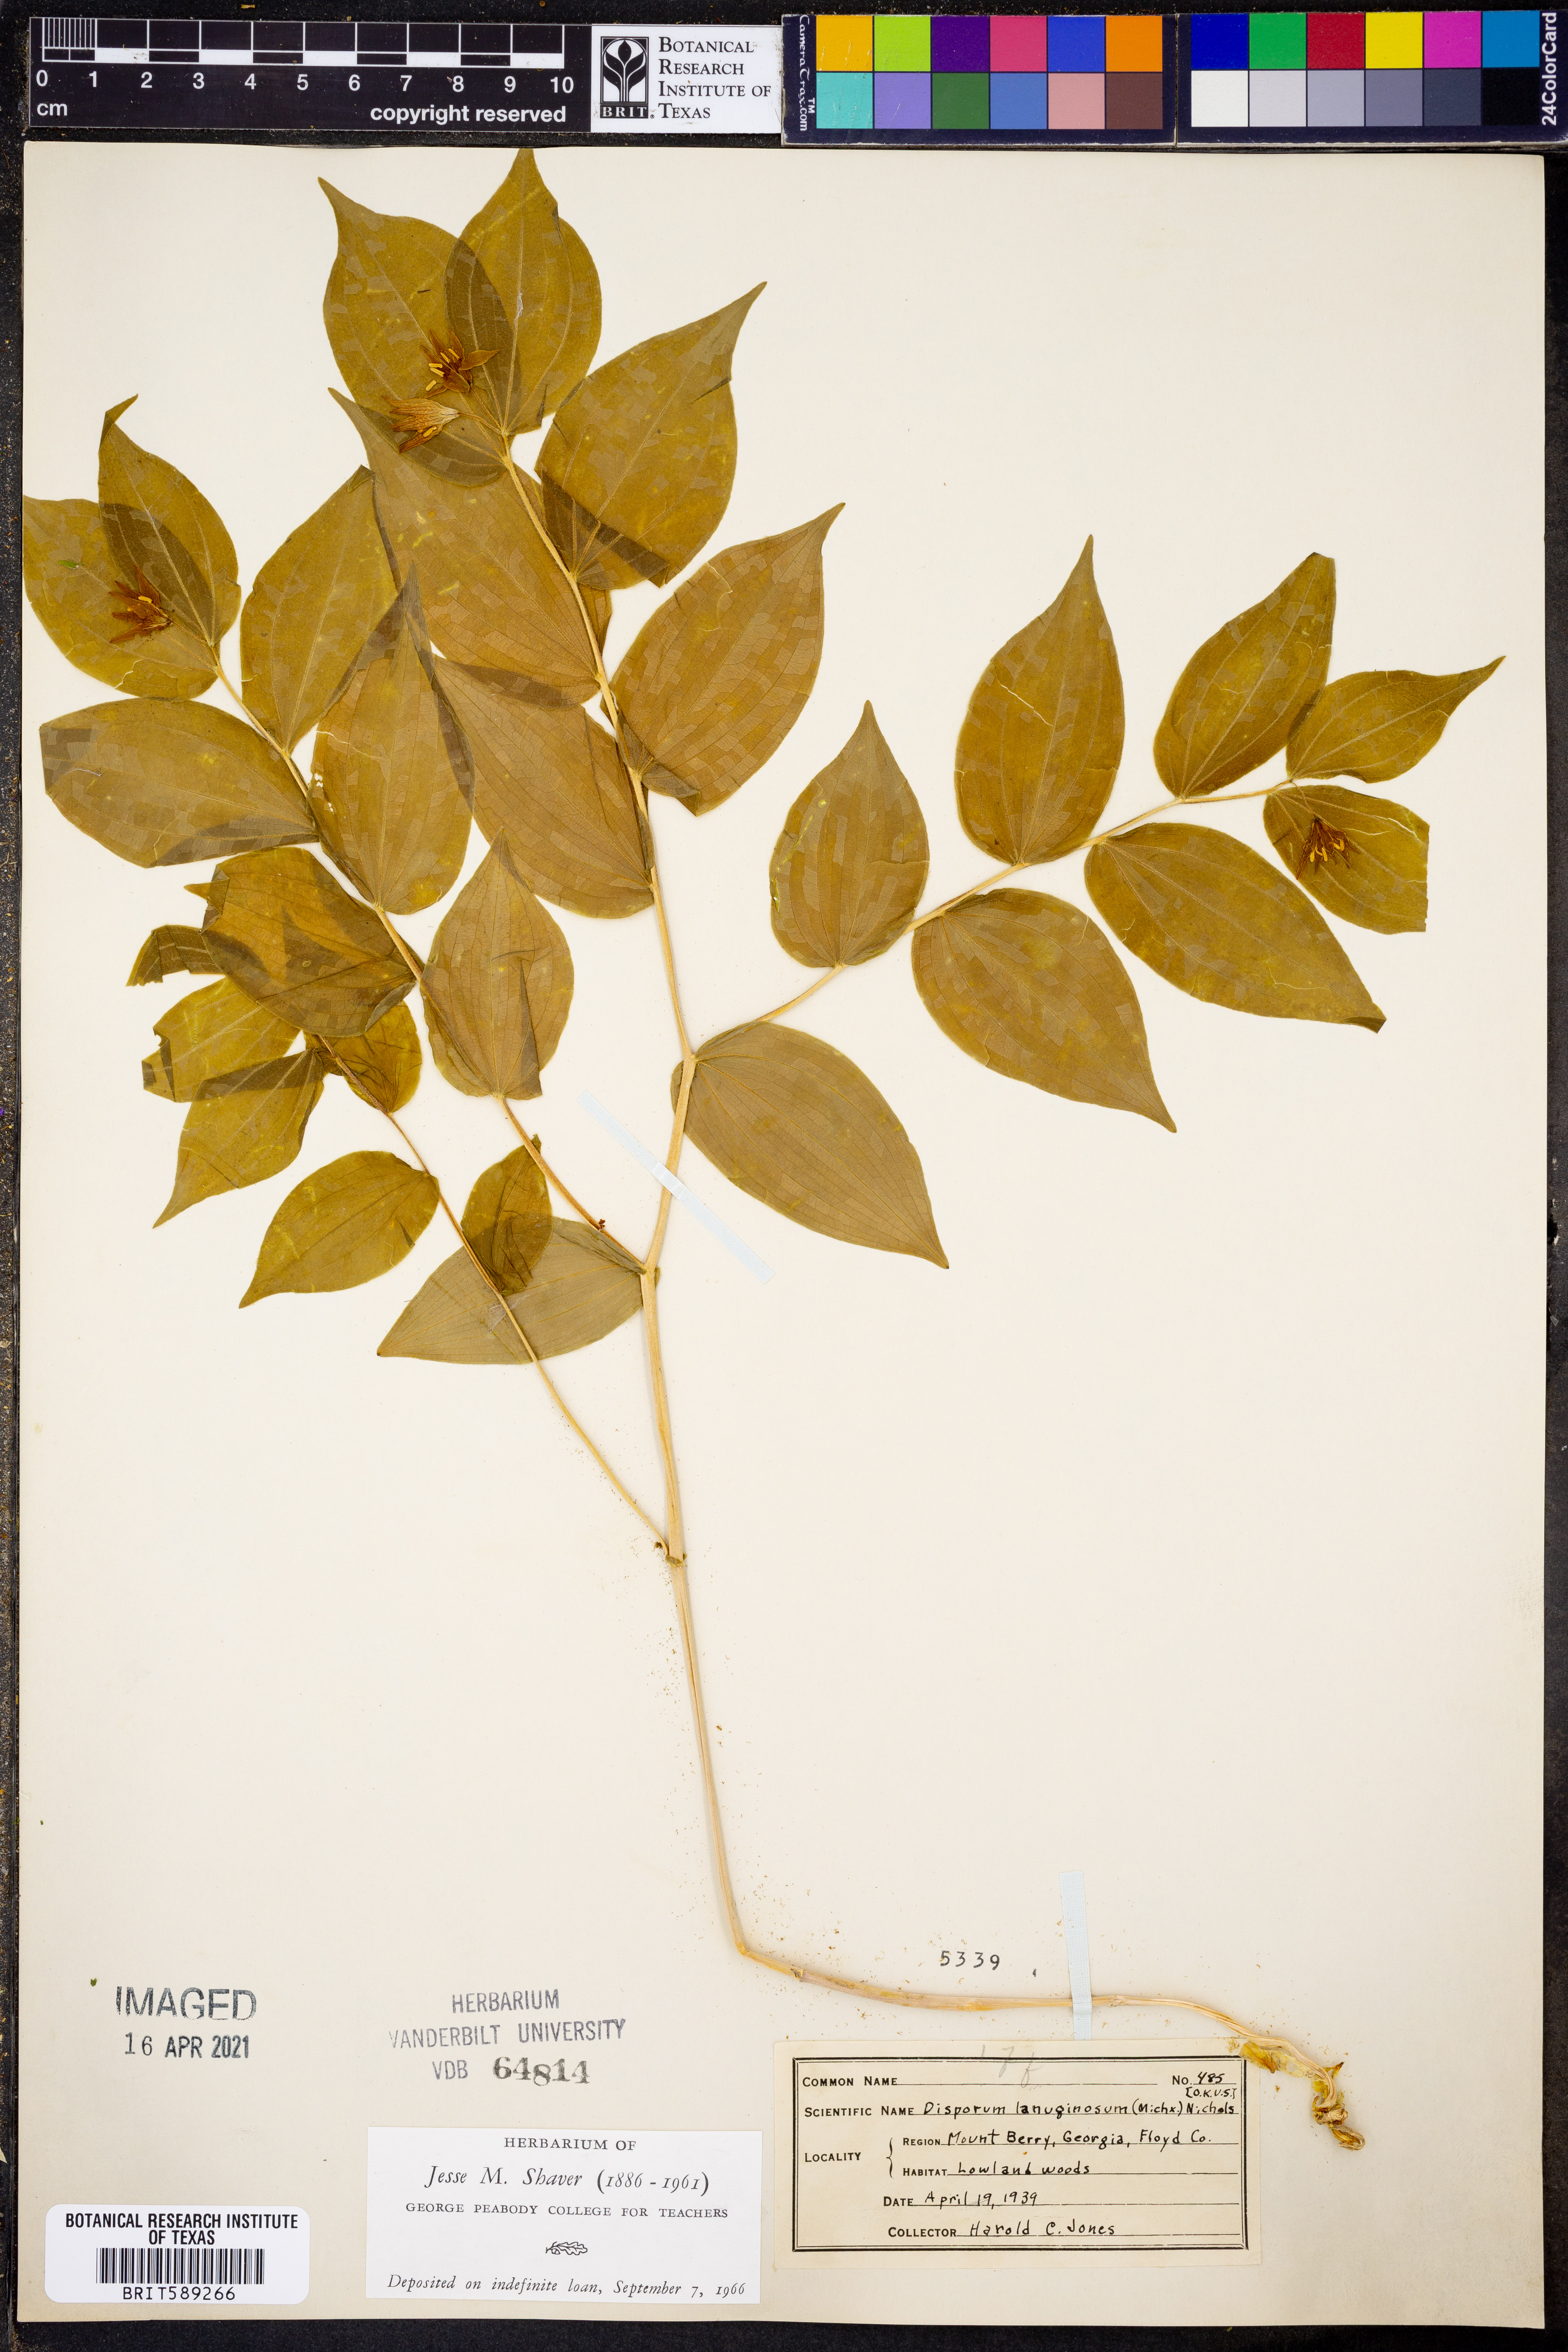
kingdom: Plantae
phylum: Tracheophyta
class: Liliopsida
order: Liliales
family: Liliaceae
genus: Prosartes
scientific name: Prosartes lanuginosa
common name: Hairy mandarin
